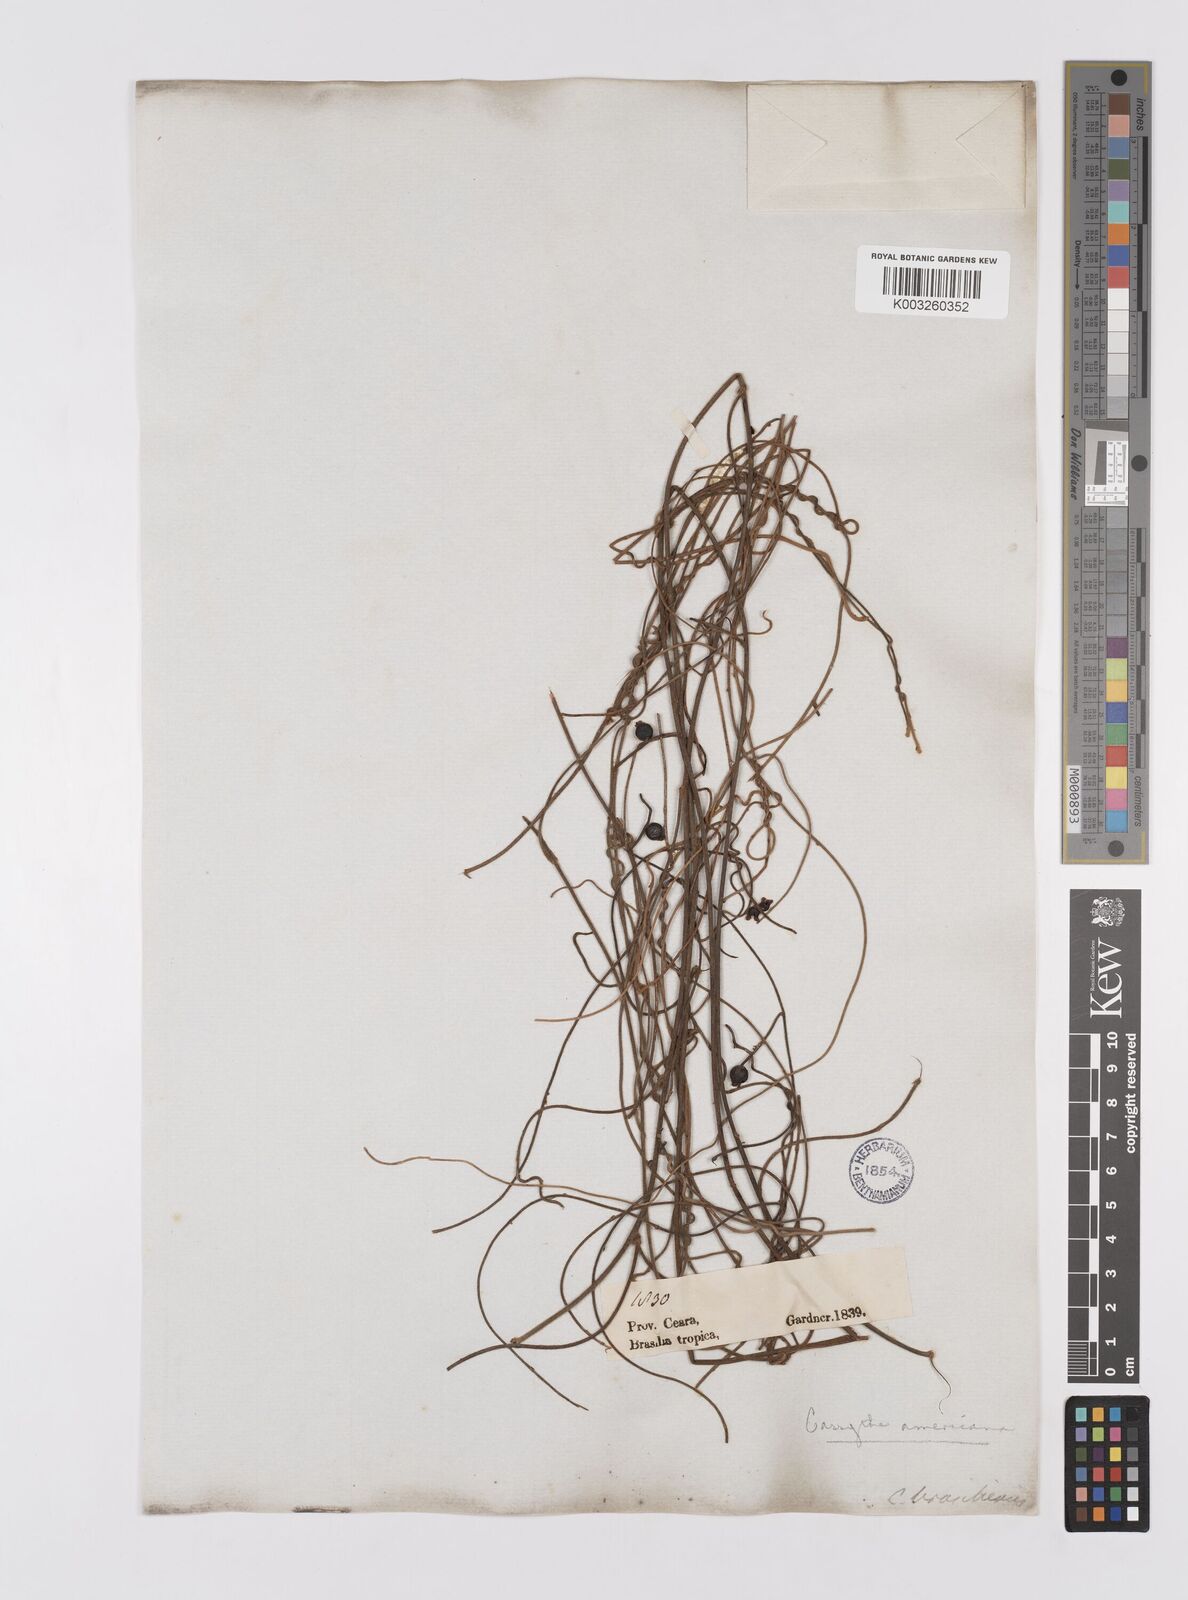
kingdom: Plantae
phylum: Tracheophyta
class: Magnoliopsida
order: Laurales
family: Lauraceae
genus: Cassytha
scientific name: Cassytha filiformis
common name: Dodder-laurel
